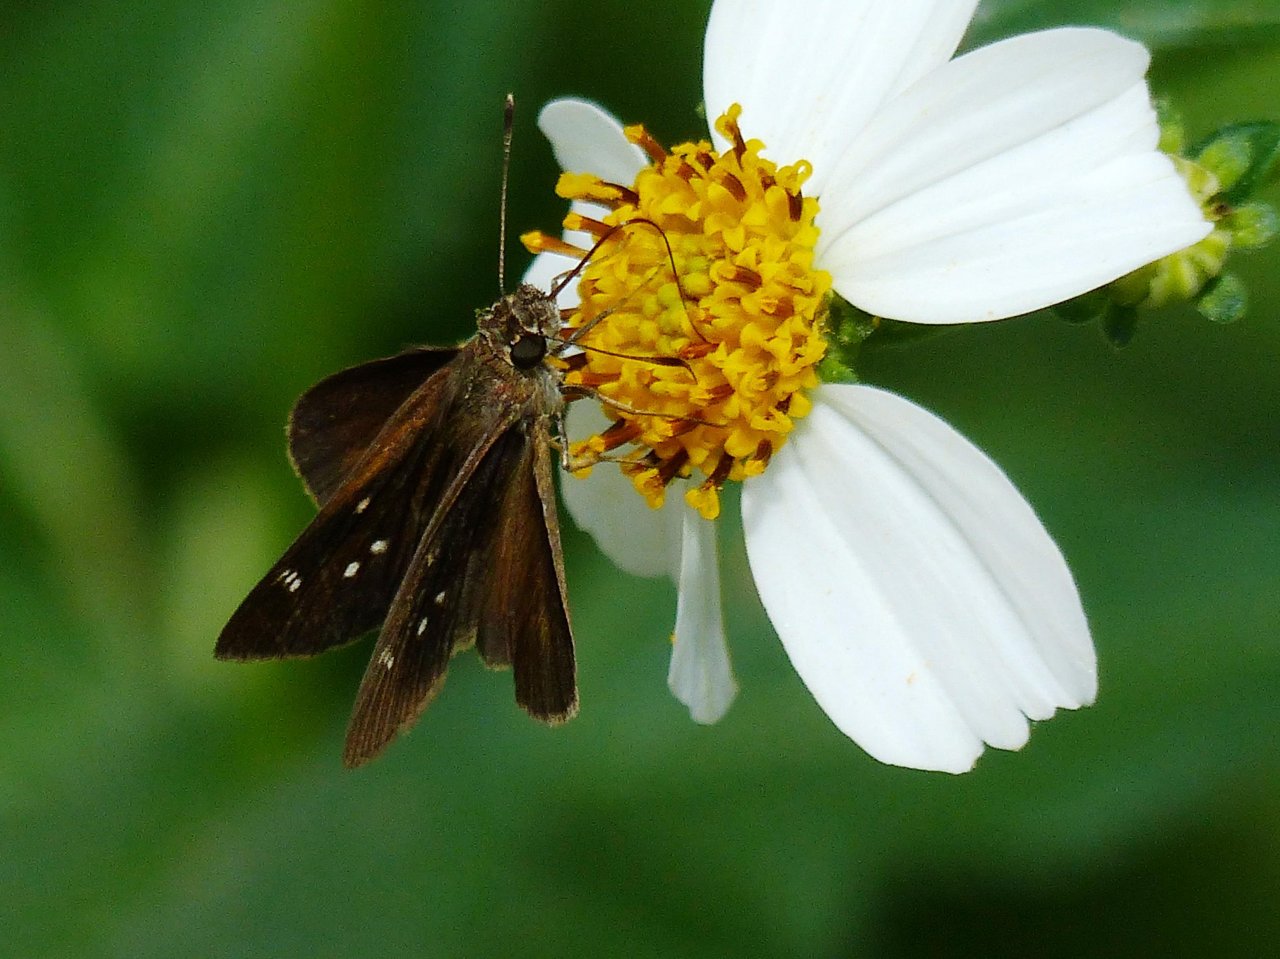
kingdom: Animalia
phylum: Arthropoda
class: Insecta
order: Lepidoptera
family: Hesperiidae
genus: Cymaenes
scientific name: Cymaenes tripunctus
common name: Three-spotted Skipper
